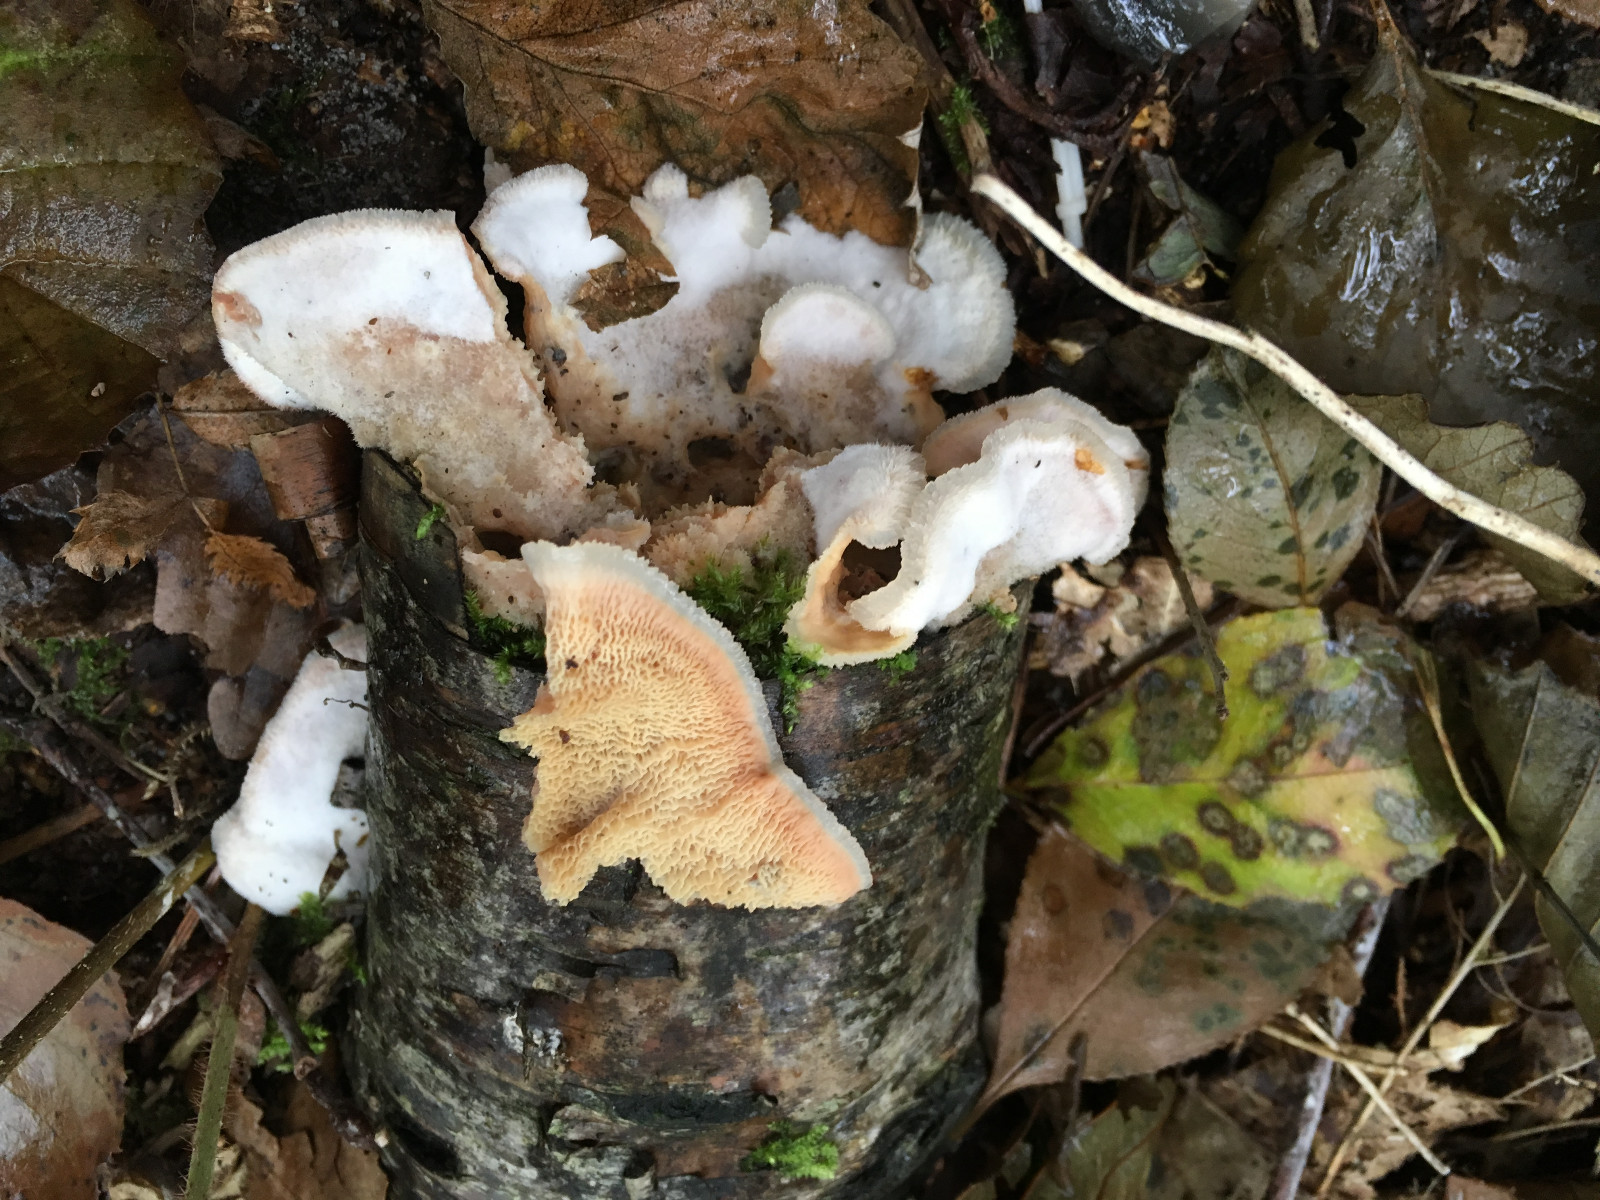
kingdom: Fungi
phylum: Basidiomycota
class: Agaricomycetes
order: Polyporales
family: Meruliaceae
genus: Phlebia
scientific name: Phlebia tremellosa
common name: bævrende åresvamp
